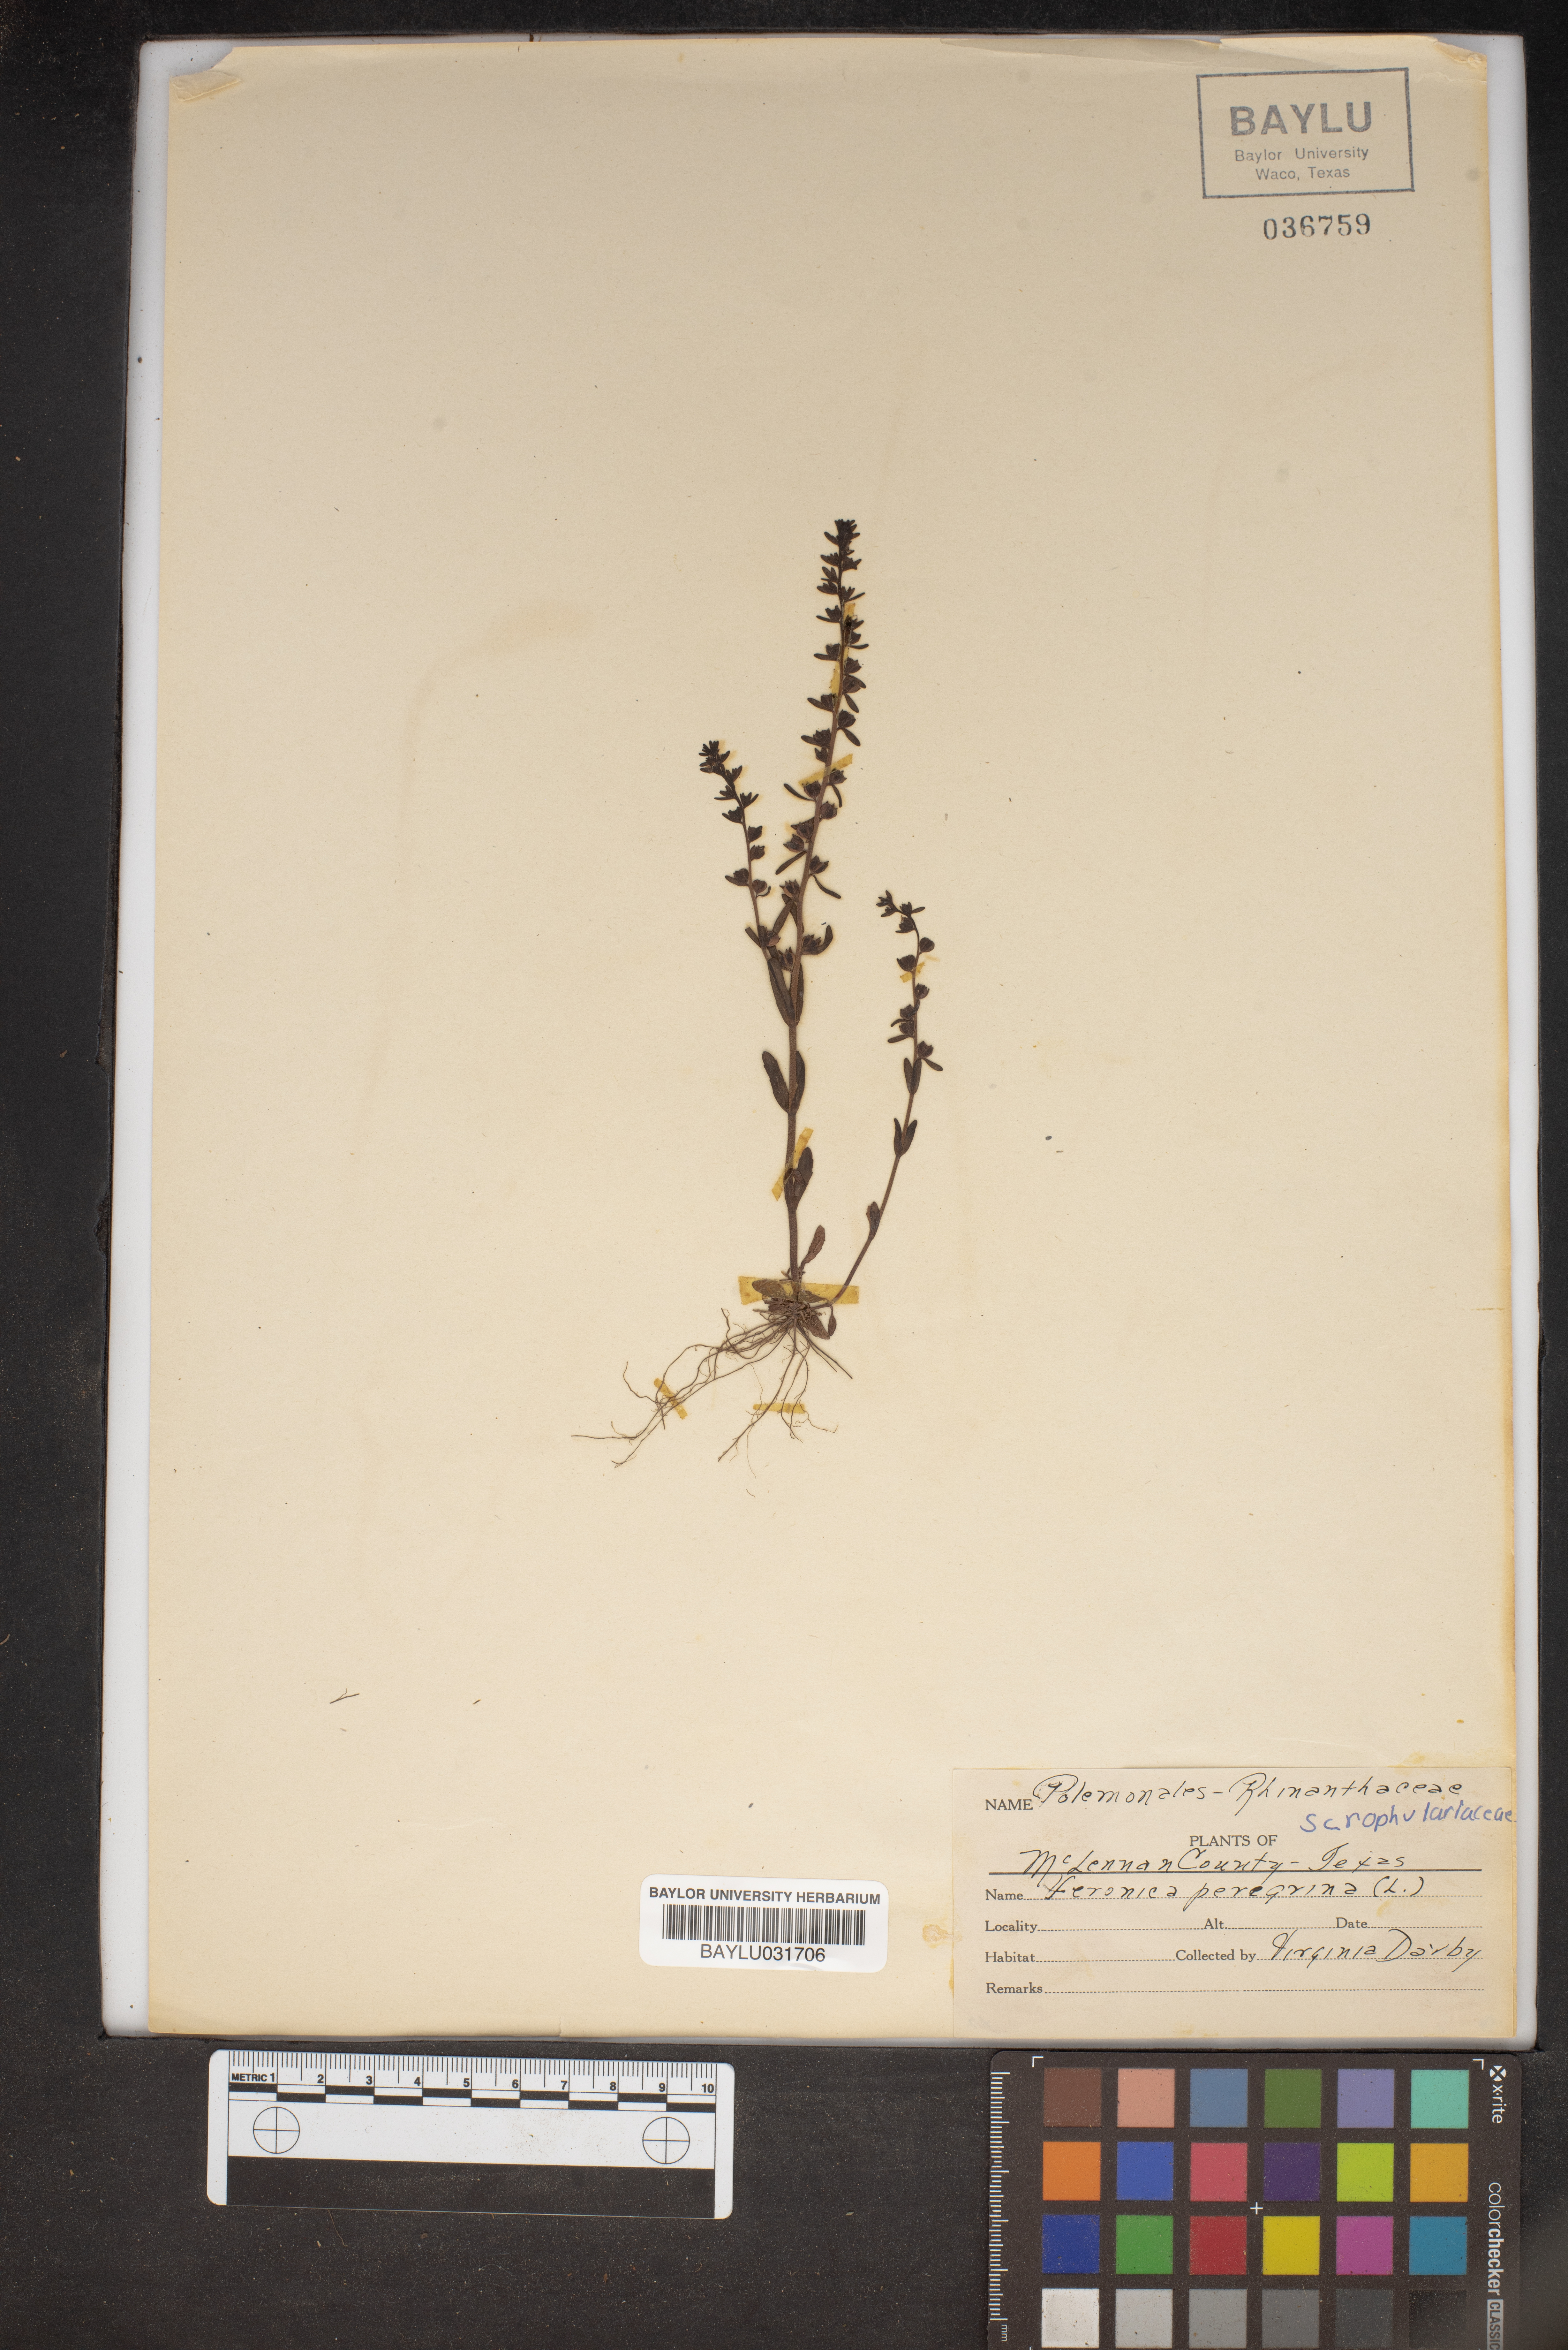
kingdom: Plantae
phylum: Tracheophyta
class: Magnoliopsida
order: Lamiales
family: Plantaginaceae
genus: Veronica
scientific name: Veronica peregrina
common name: Neckweed
